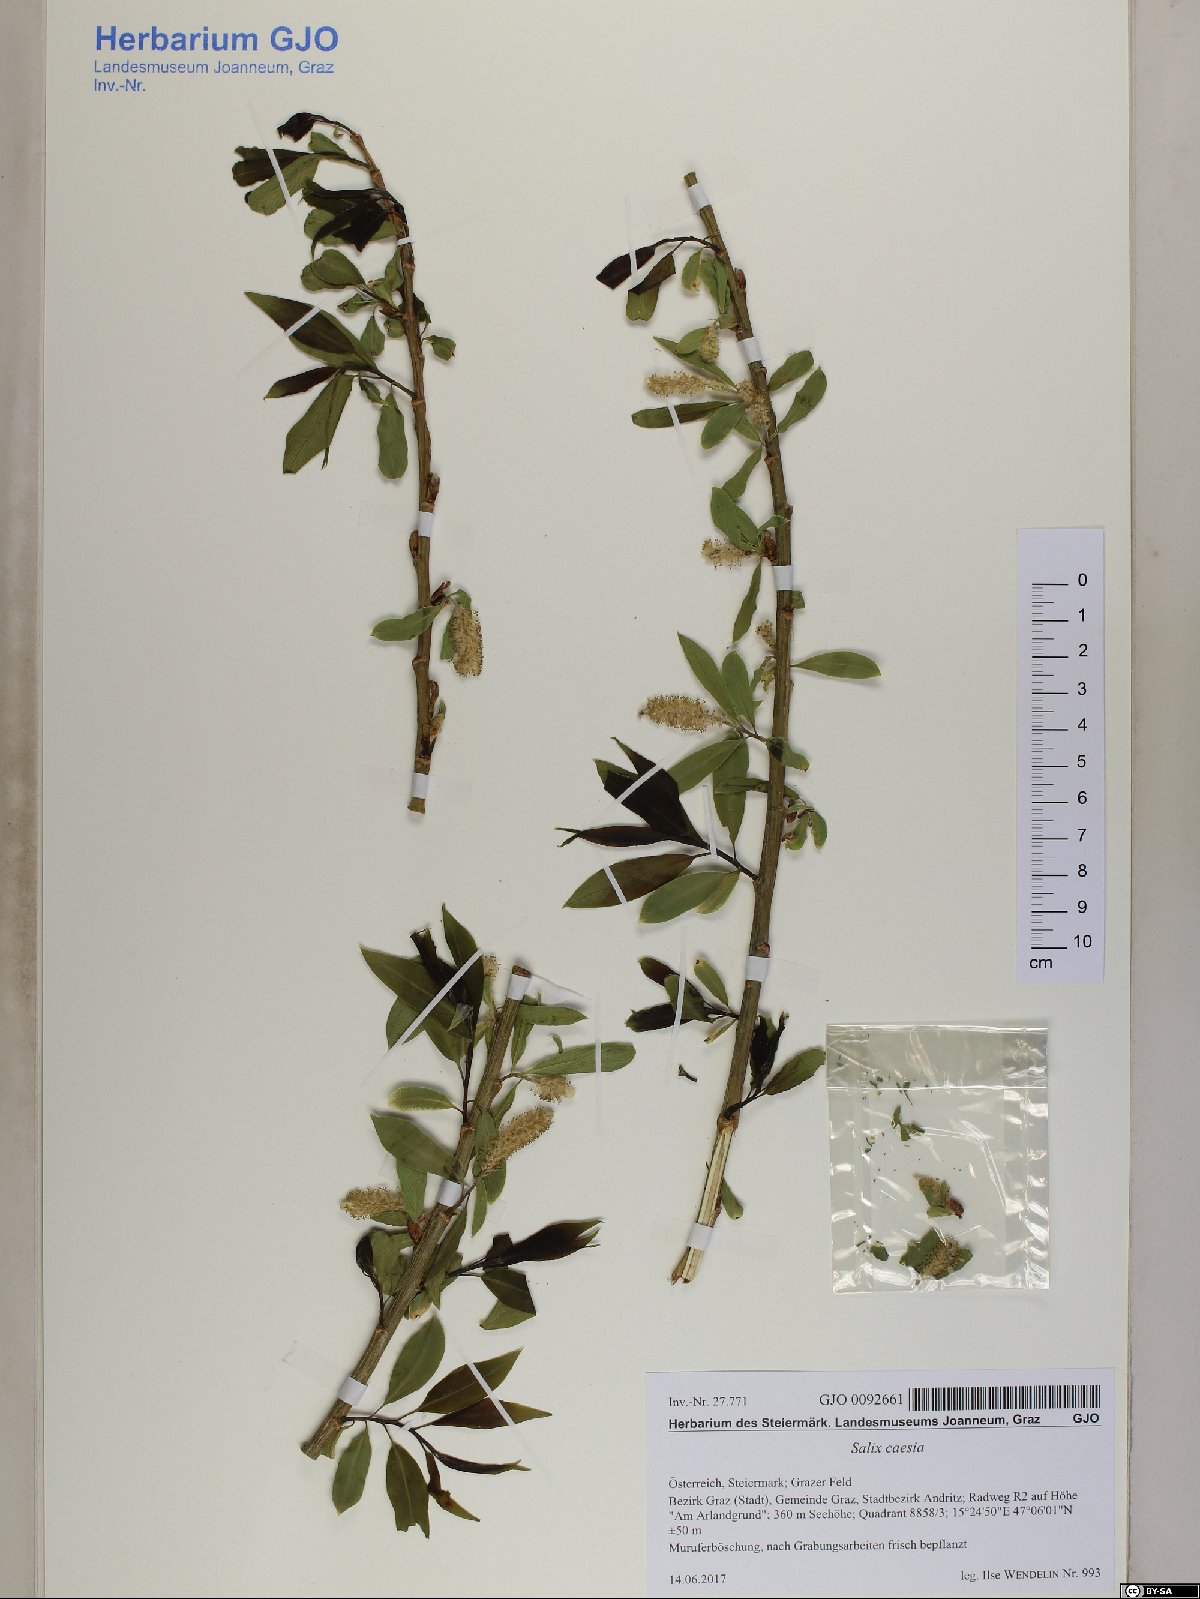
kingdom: Plantae
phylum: Tracheophyta
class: Magnoliopsida
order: Malpighiales
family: Salicaceae
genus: Salix
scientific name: Salix caesia
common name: Blue willow
